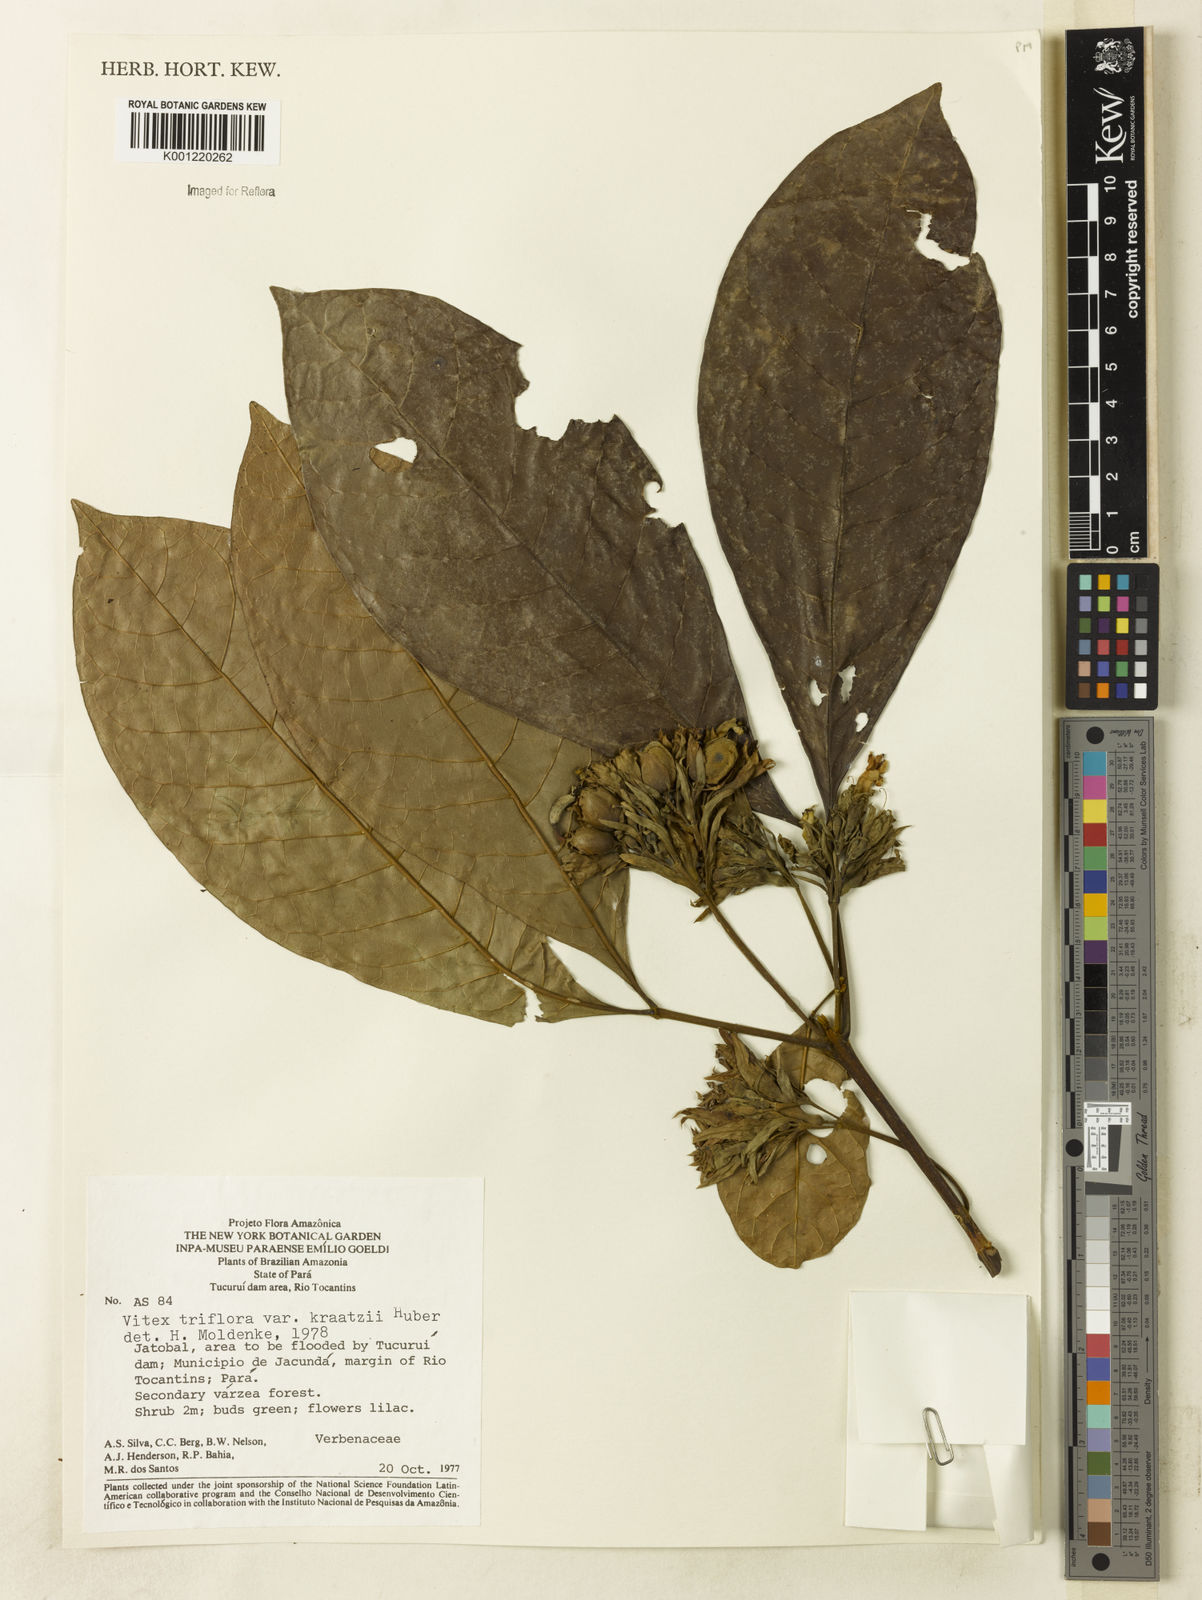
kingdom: Plantae
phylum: Tracheophyta
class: Magnoliopsida
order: Lamiales
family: Lamiaceae
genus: Vitex
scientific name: Vitex triflora
